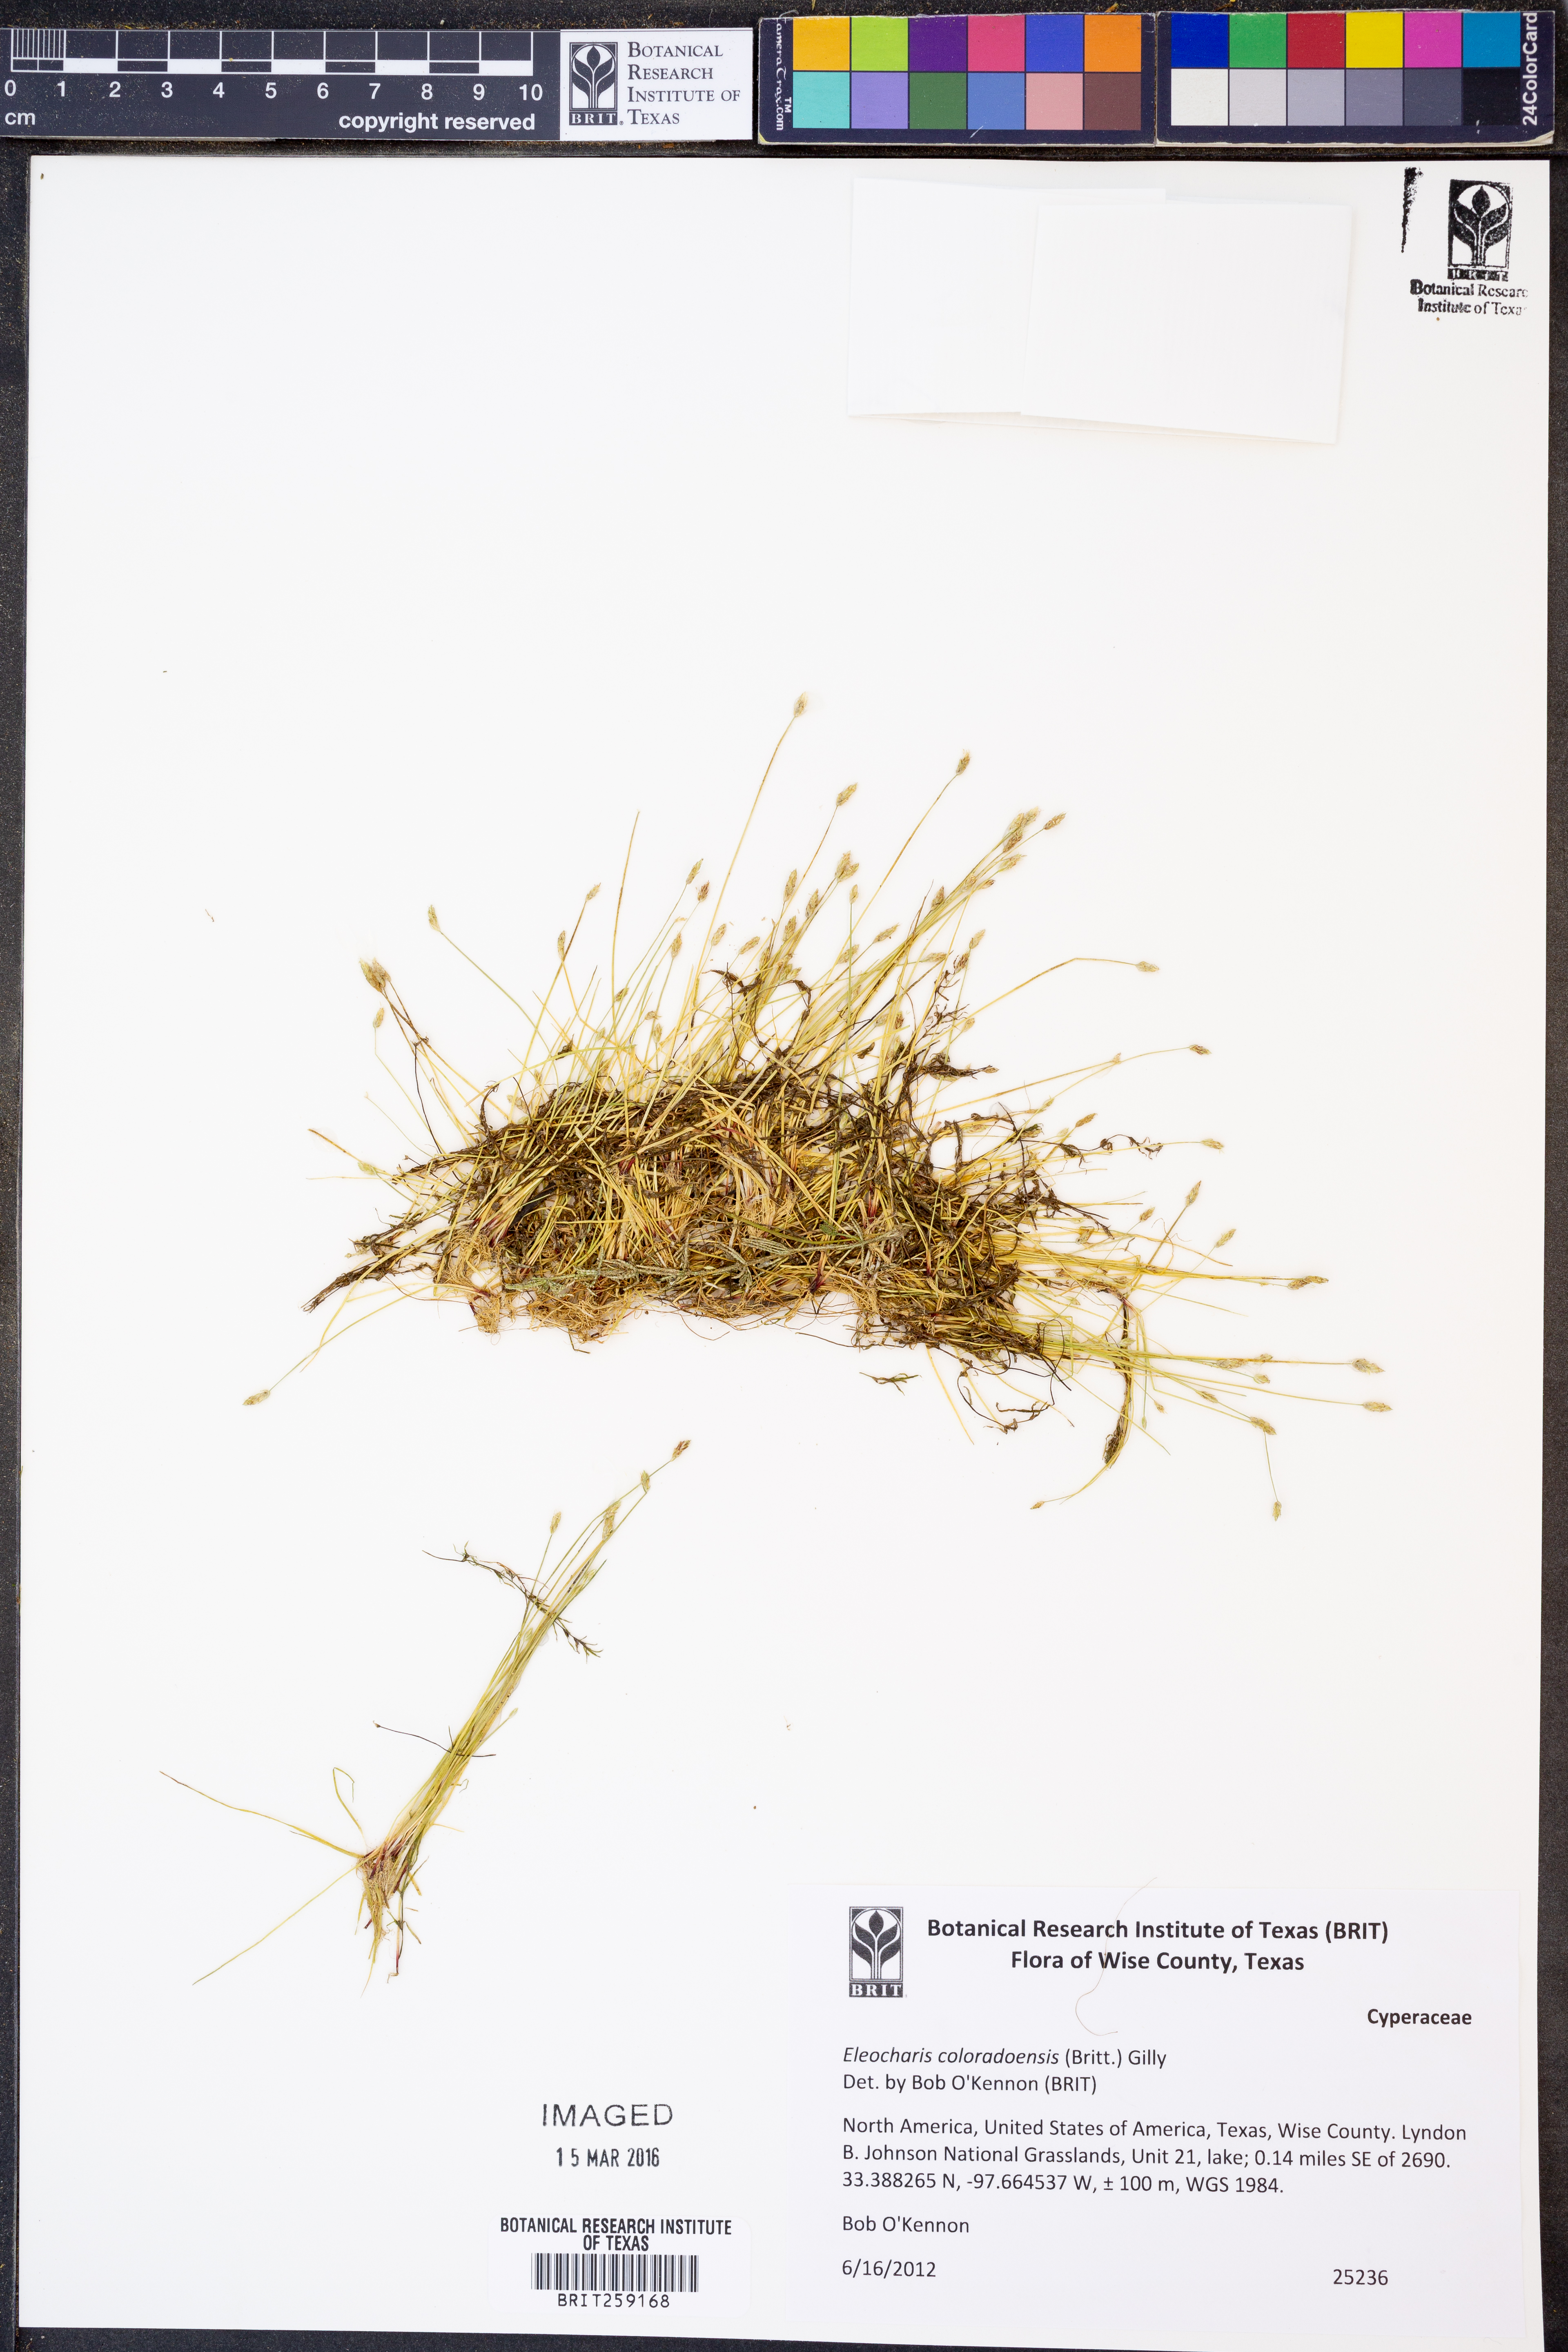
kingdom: Plantae
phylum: Tracheophyta
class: Liliopsida
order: Poales
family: Cyperaceae
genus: Eleocharis
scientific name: Eleocharis coloradoensis
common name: Colorado spikerush
